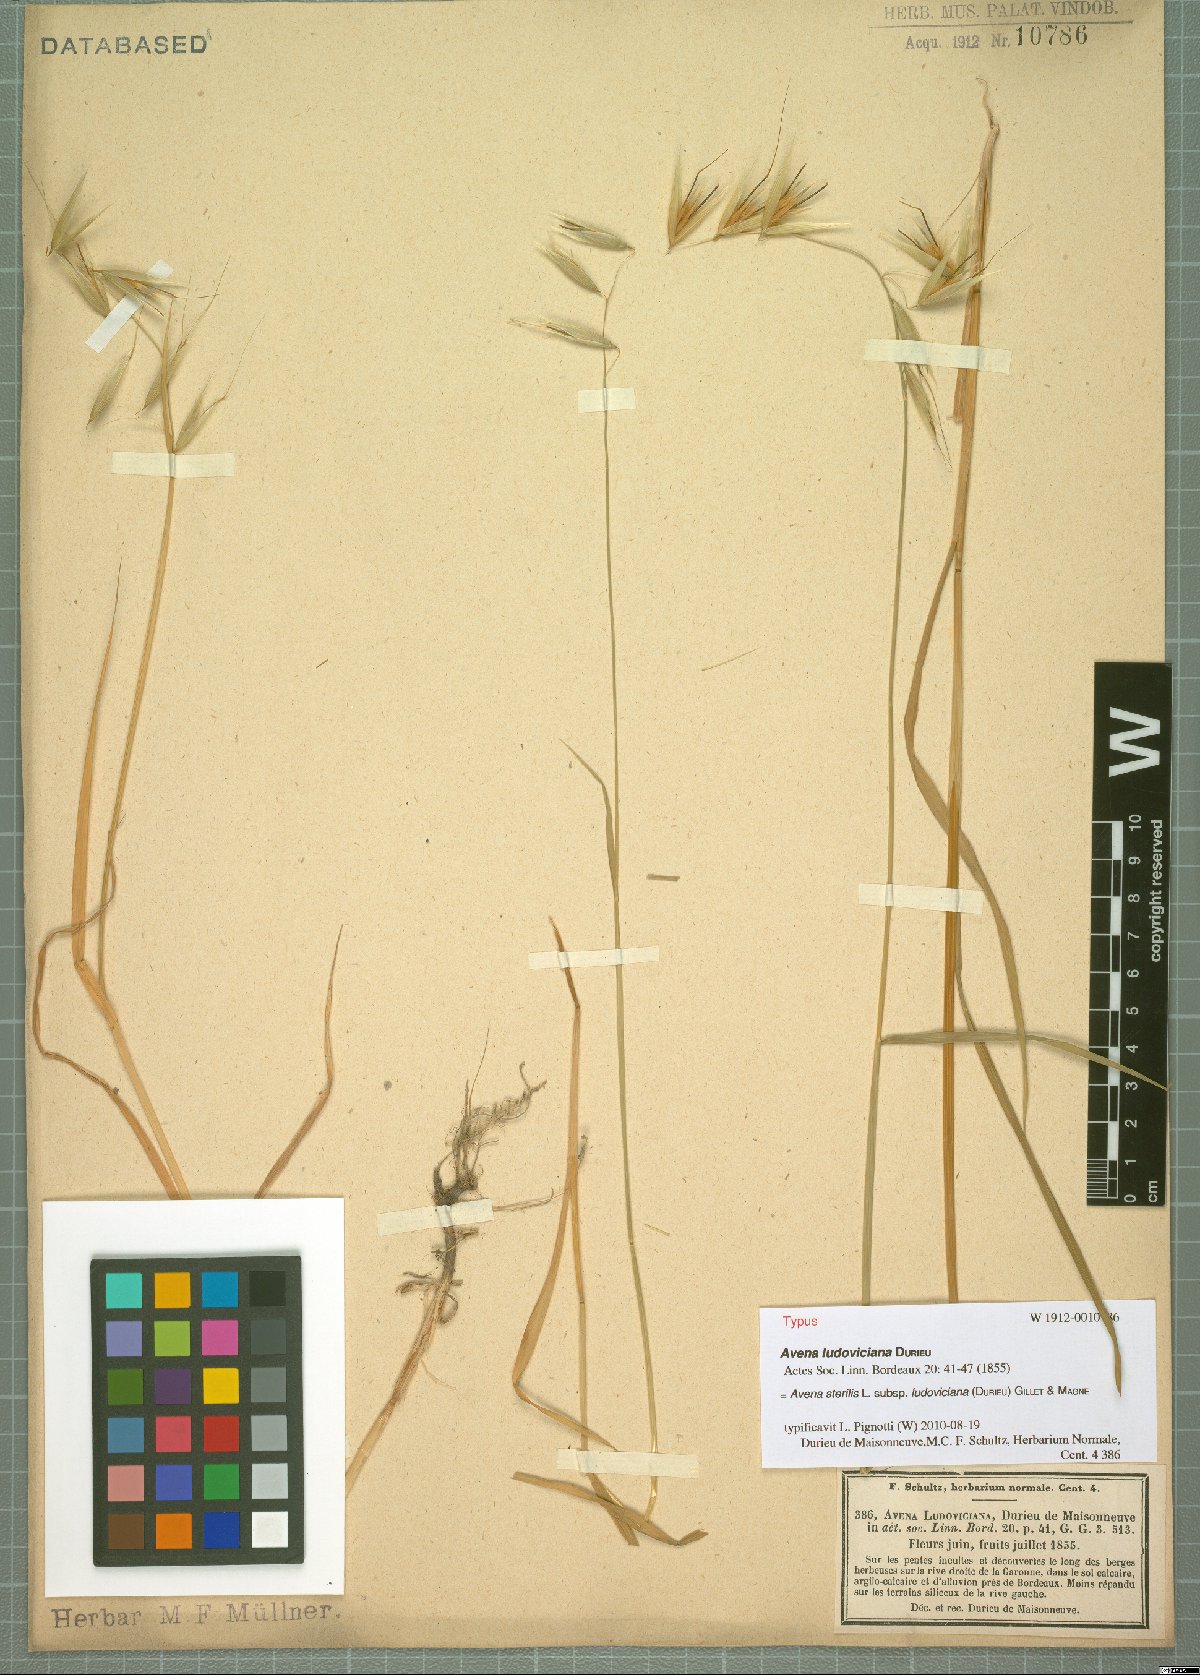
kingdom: Plantae
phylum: Tracheophyta
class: Liliopsida
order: Poales
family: Poaceae
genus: Avena
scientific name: Avena sterilis
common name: Animated oat
